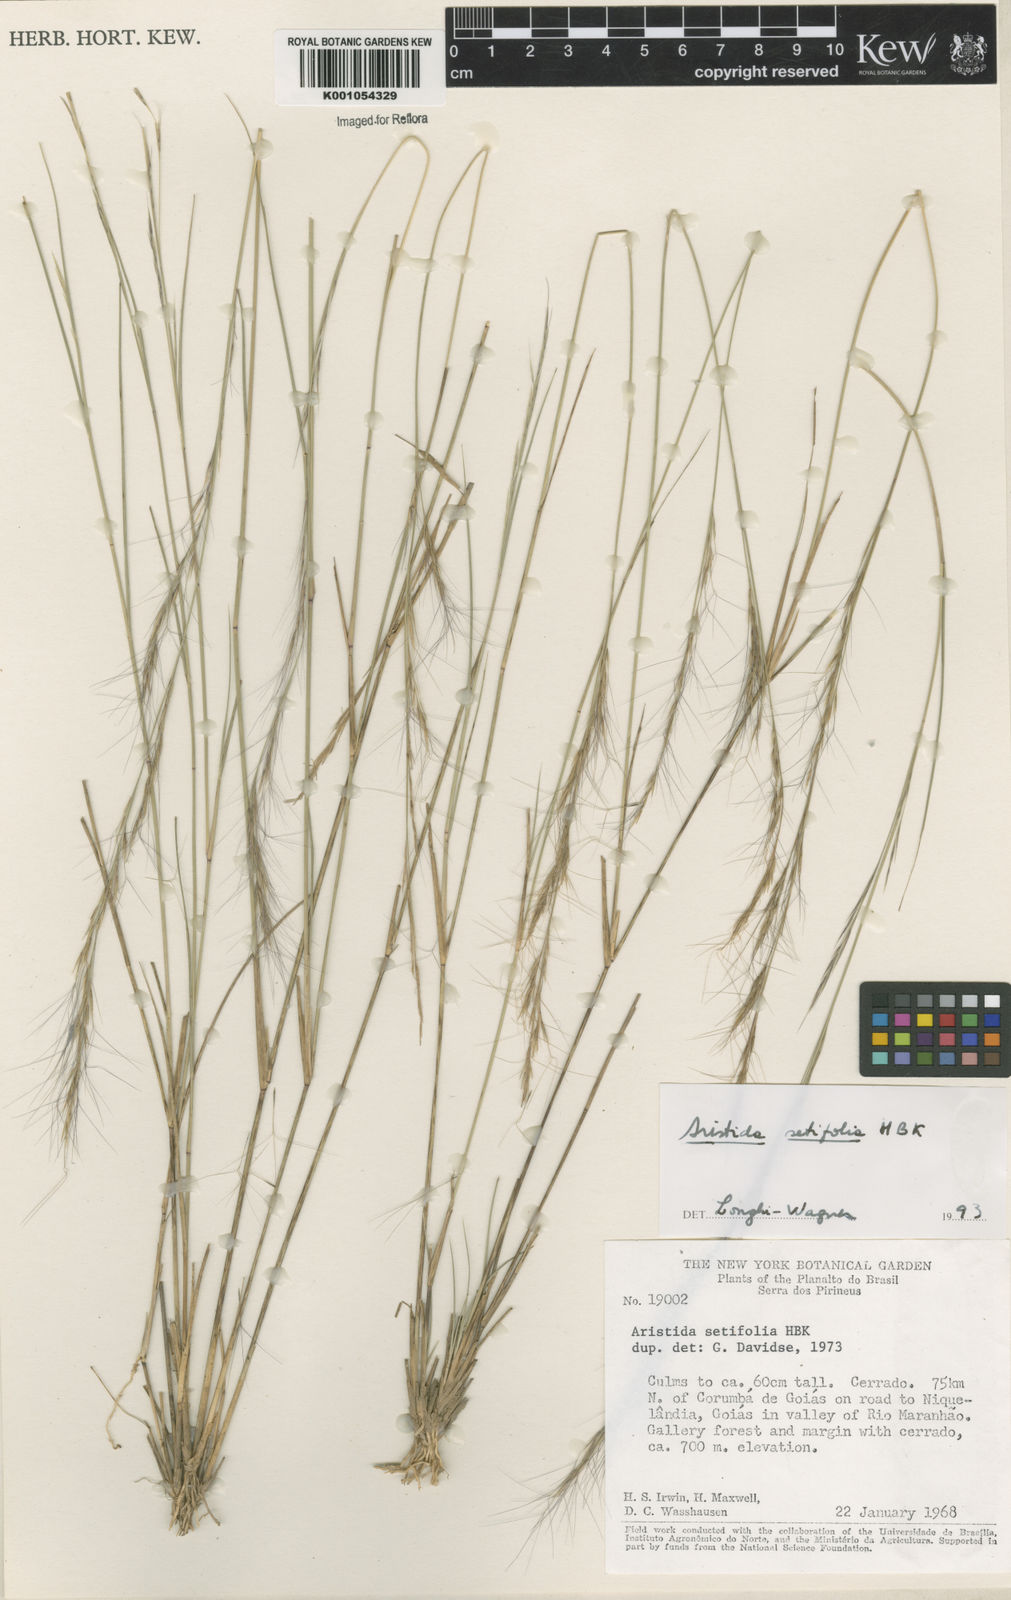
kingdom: Plantae
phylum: Tracheophyta
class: Liliopsida
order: Poales
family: Poaceae
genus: Aristida
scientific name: Aristida setifolia
